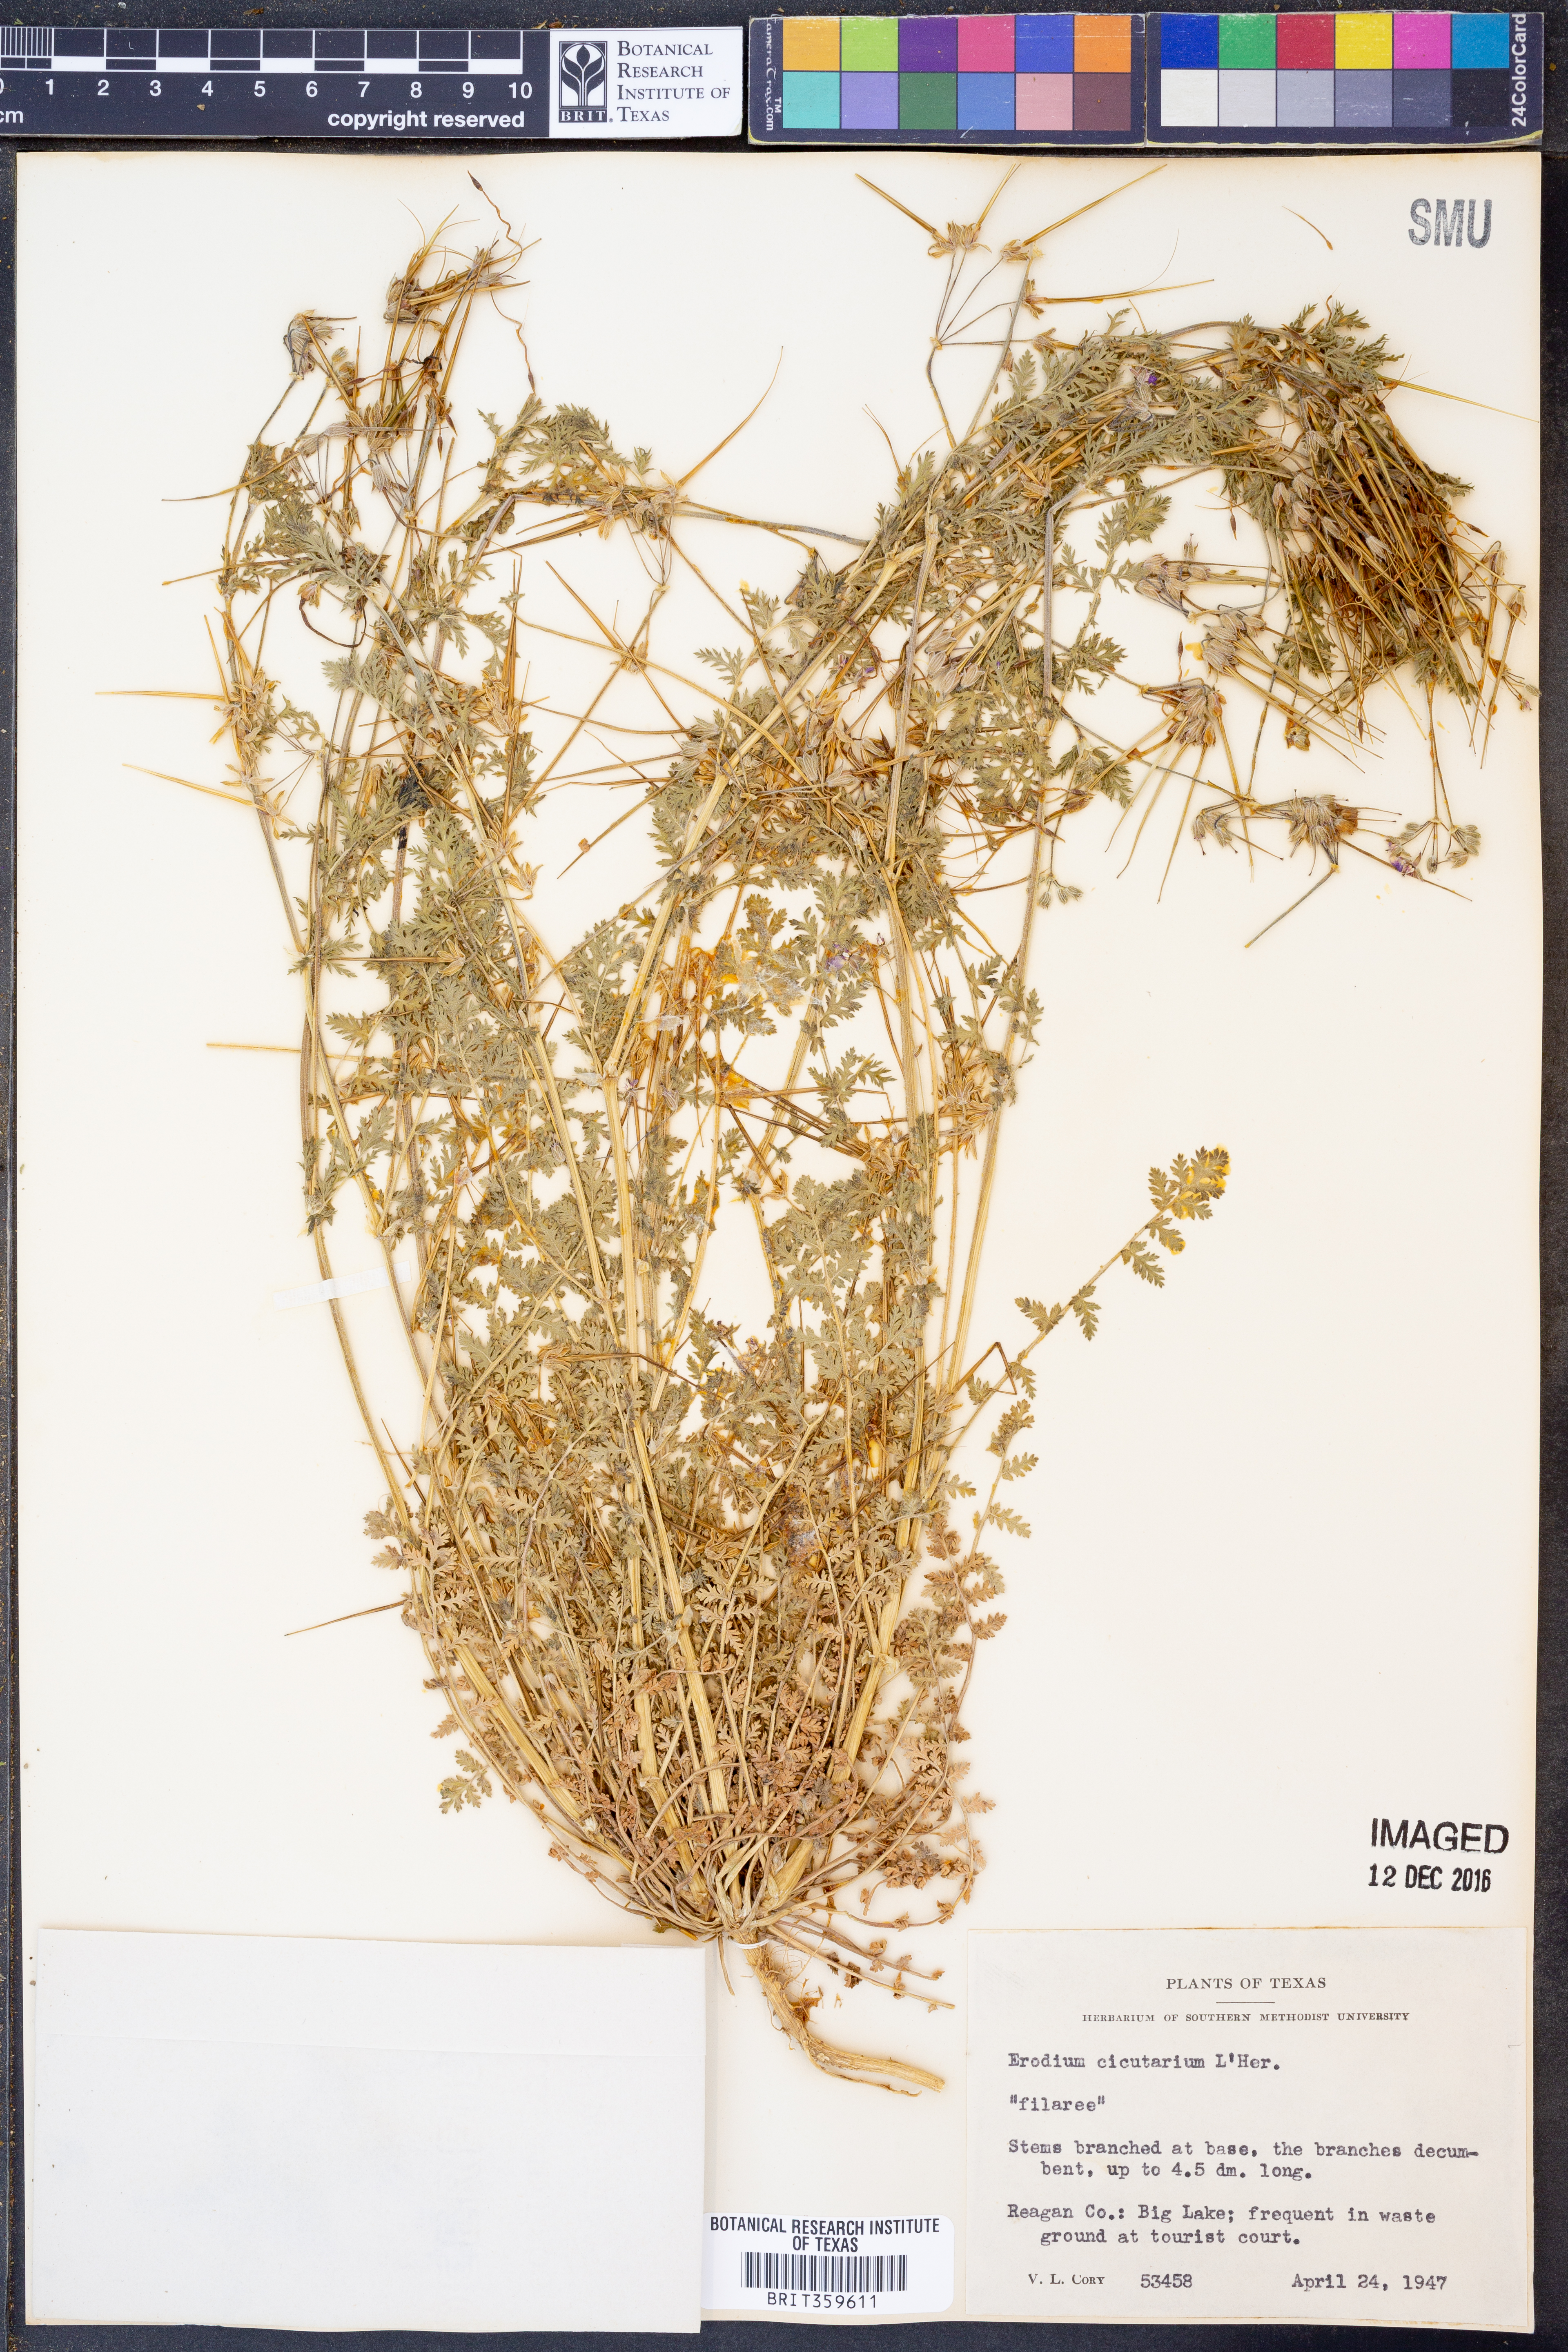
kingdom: Plantae
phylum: Tracheophyta
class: Magnoliopsida
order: Geraniales
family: Geraniaceae
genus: Erodium
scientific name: Erodium cicutarium
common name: Common stork's-bill
